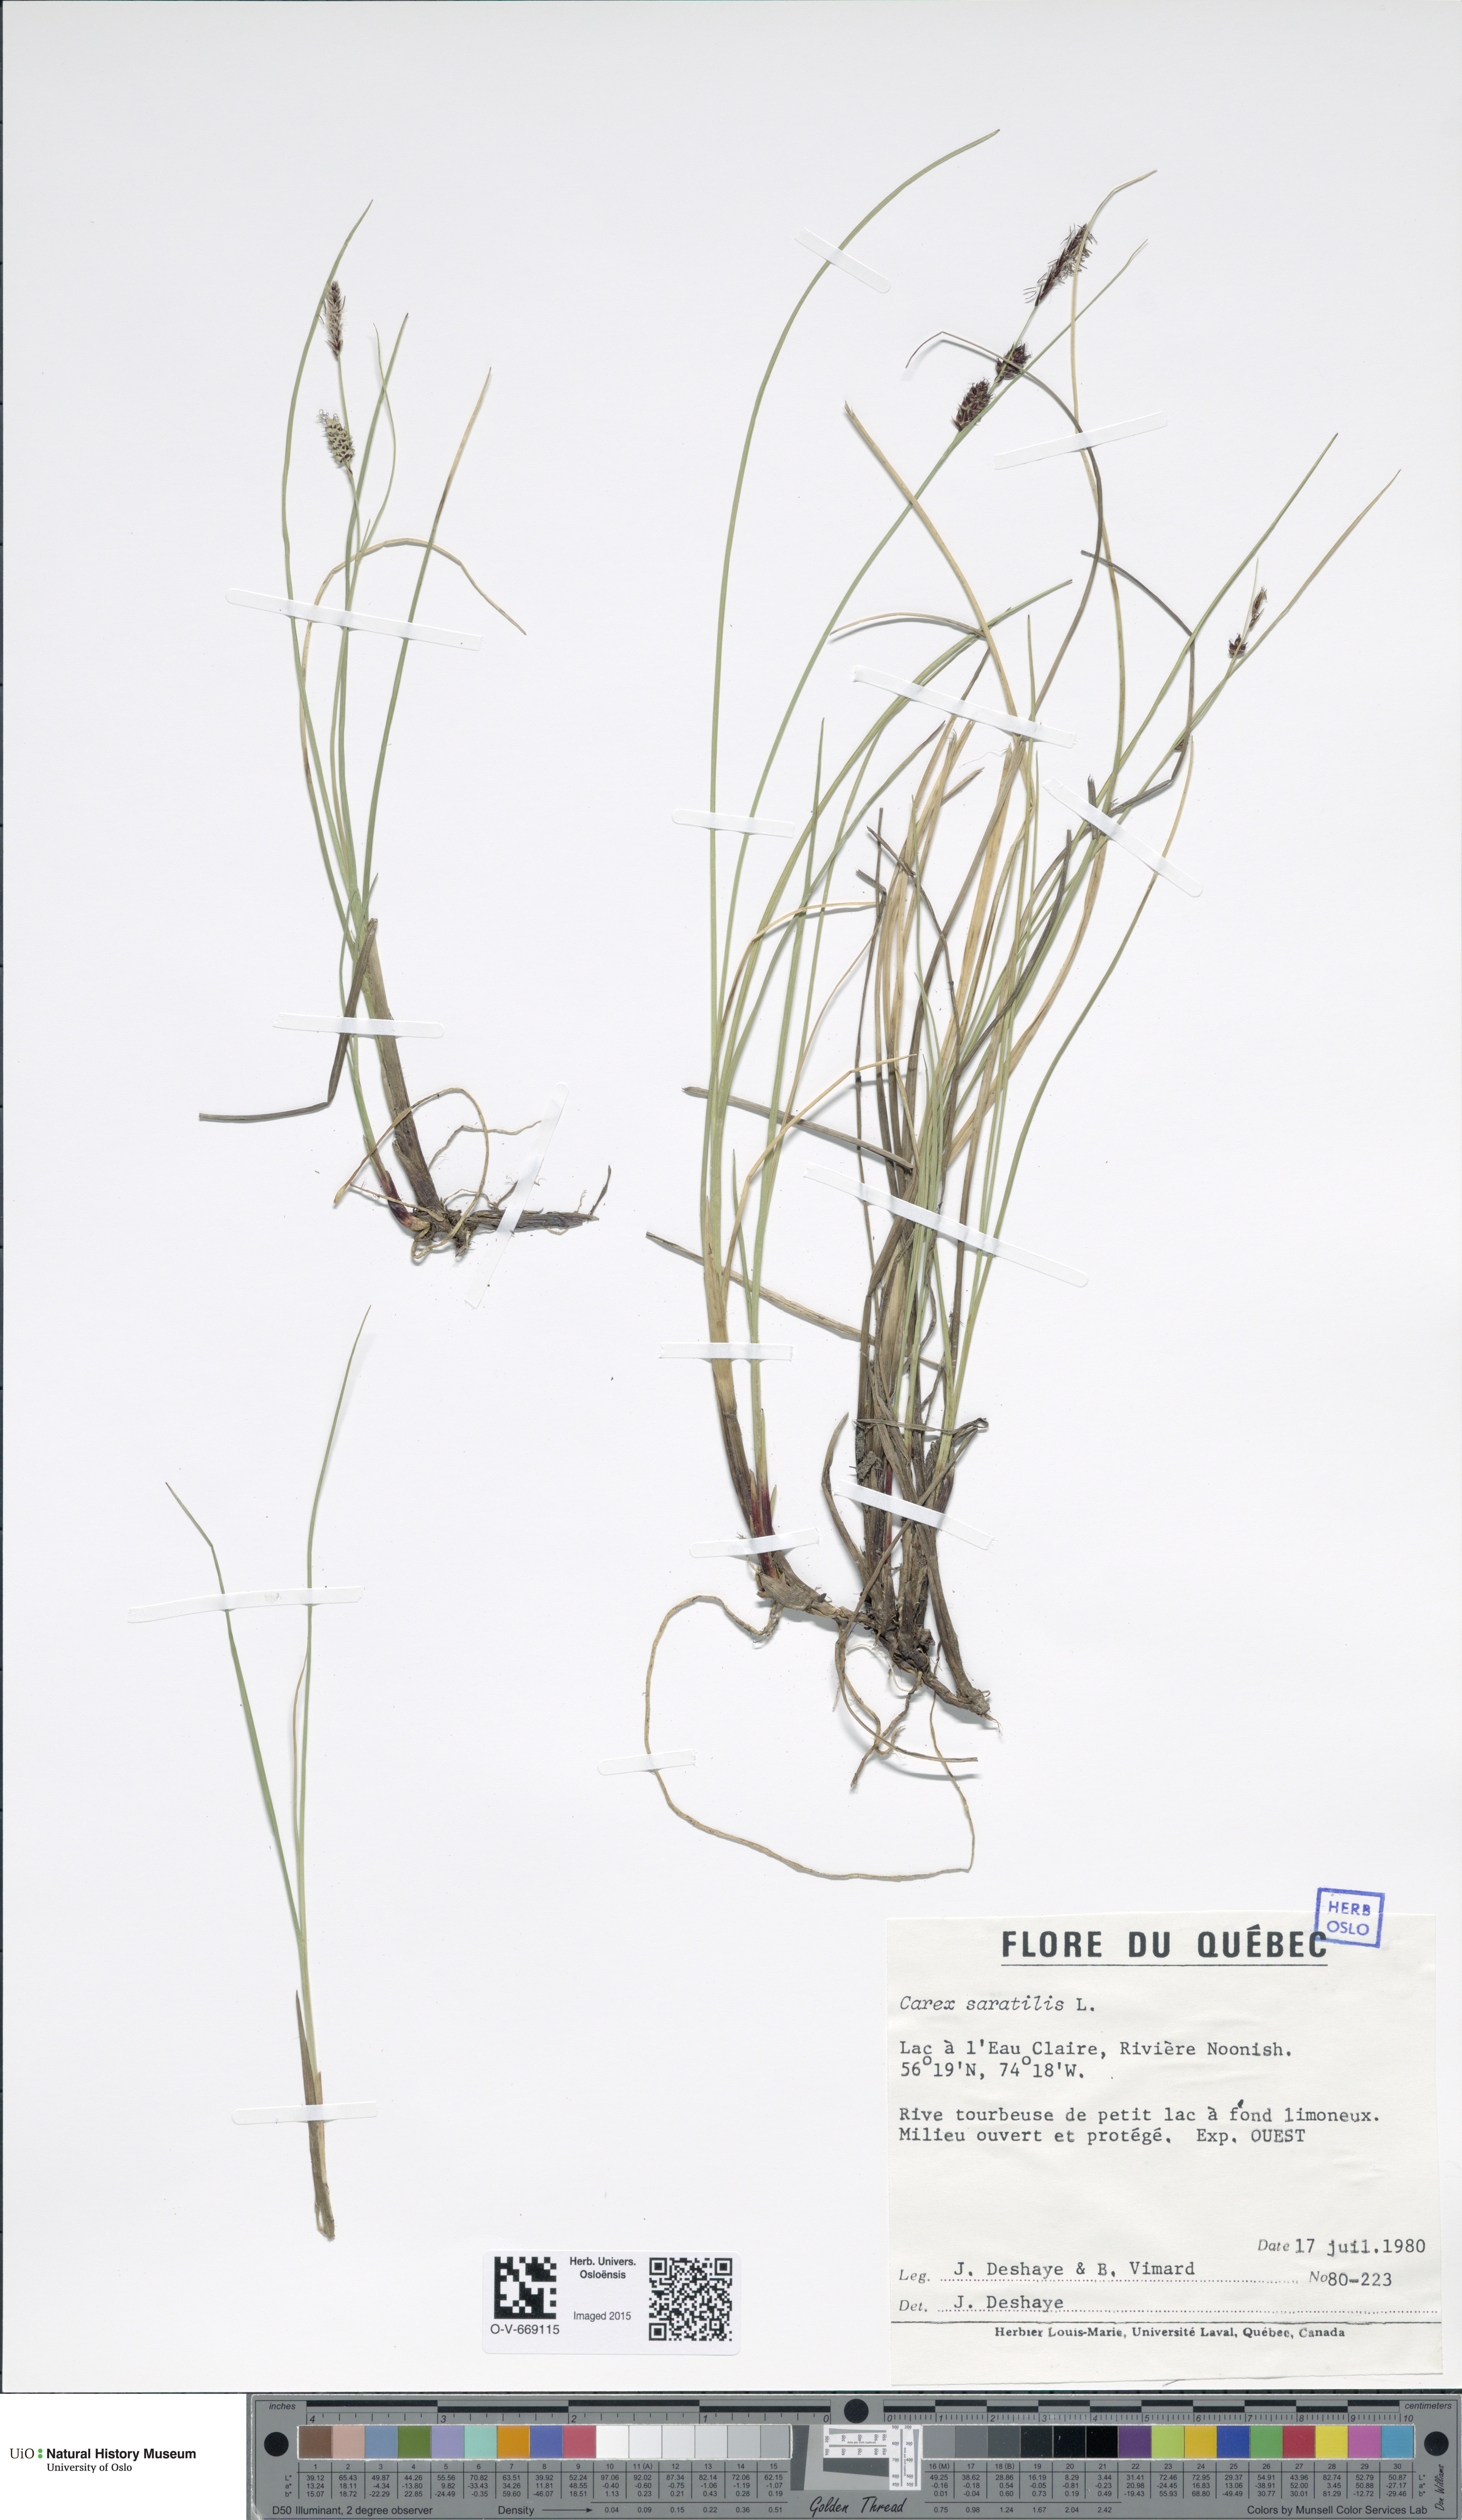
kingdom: Plantae
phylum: Tracheophyta
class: Liliopsida
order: Poales
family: Cyperaceae
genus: Carex
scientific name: Carex saxatilis
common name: Russet sedge
